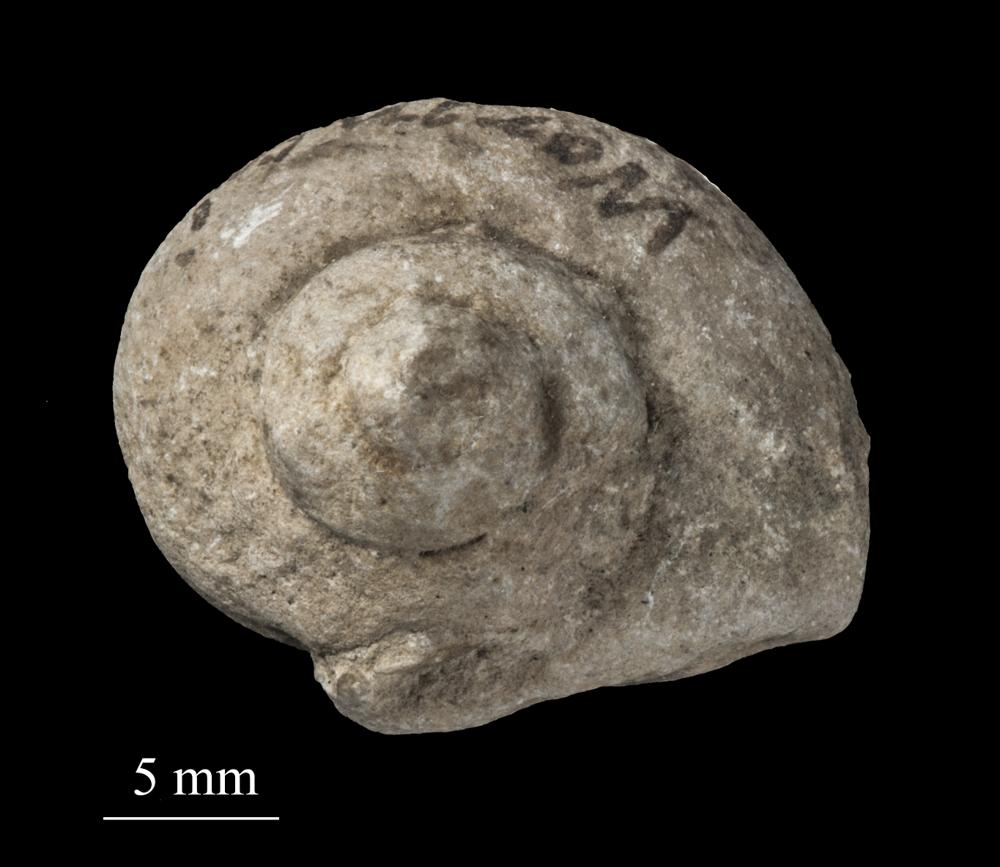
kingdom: Animalia
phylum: Mollusca
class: Gastropoda
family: Lophospiridae
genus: Lophospira
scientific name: Lophospira Worthenia subalata
